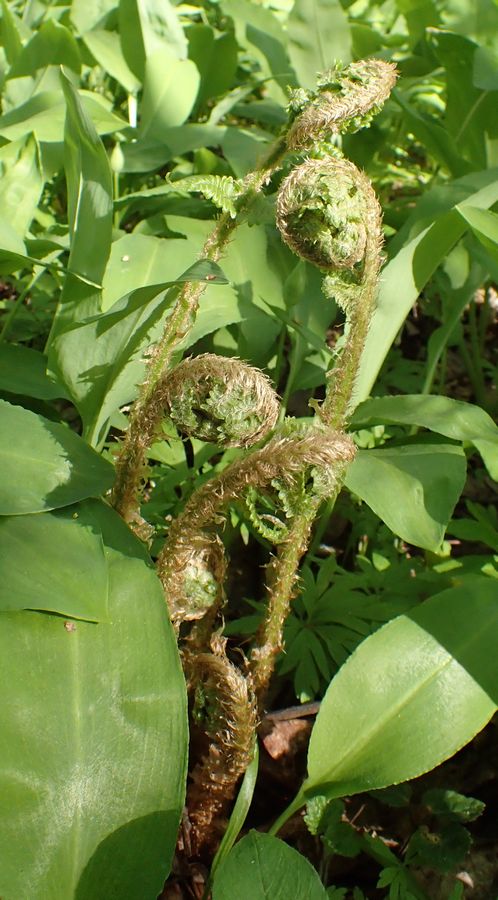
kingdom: Plantae
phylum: Tracheophyta
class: Polypodiopsida
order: Polypodiales
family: Onocleaceae
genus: Matteuccia
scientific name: Matteuccia struthiopteris
